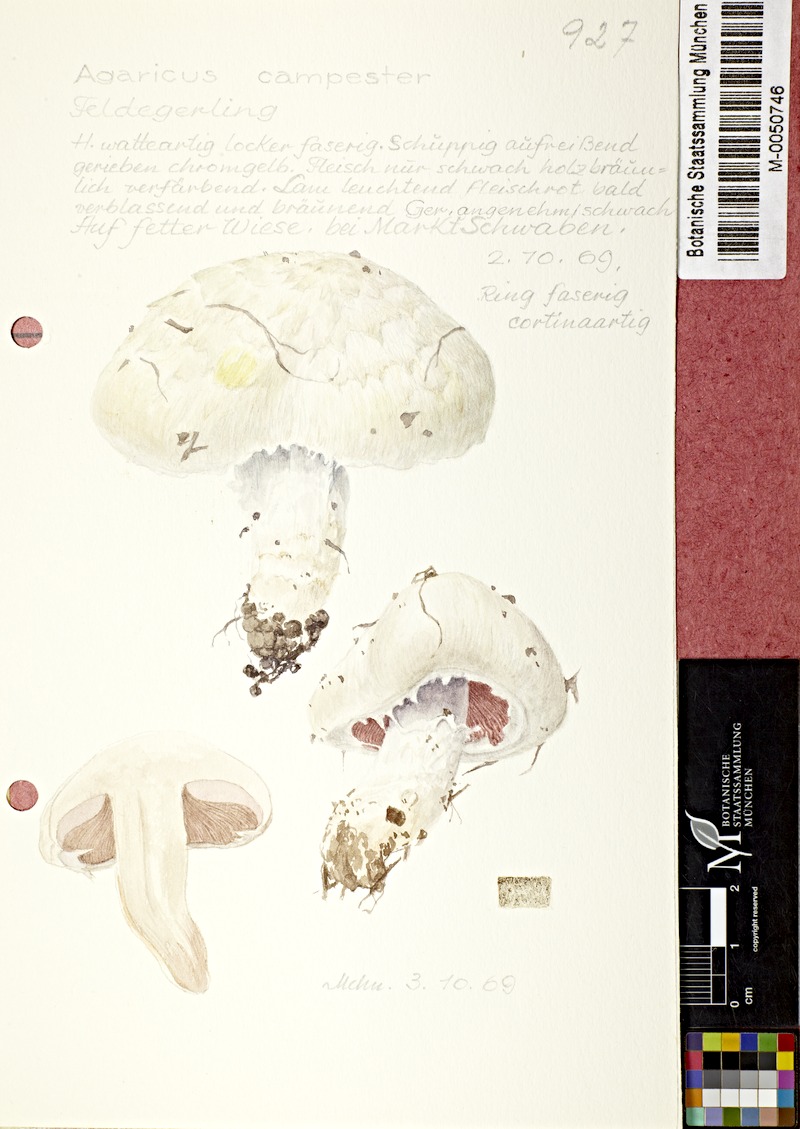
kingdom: Fungi
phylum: Basidiomycota
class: Agaricomycetes
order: Agaricales
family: Agaricaceae
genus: Agaricus
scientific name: Agaricus campestris
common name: Field mushroom
